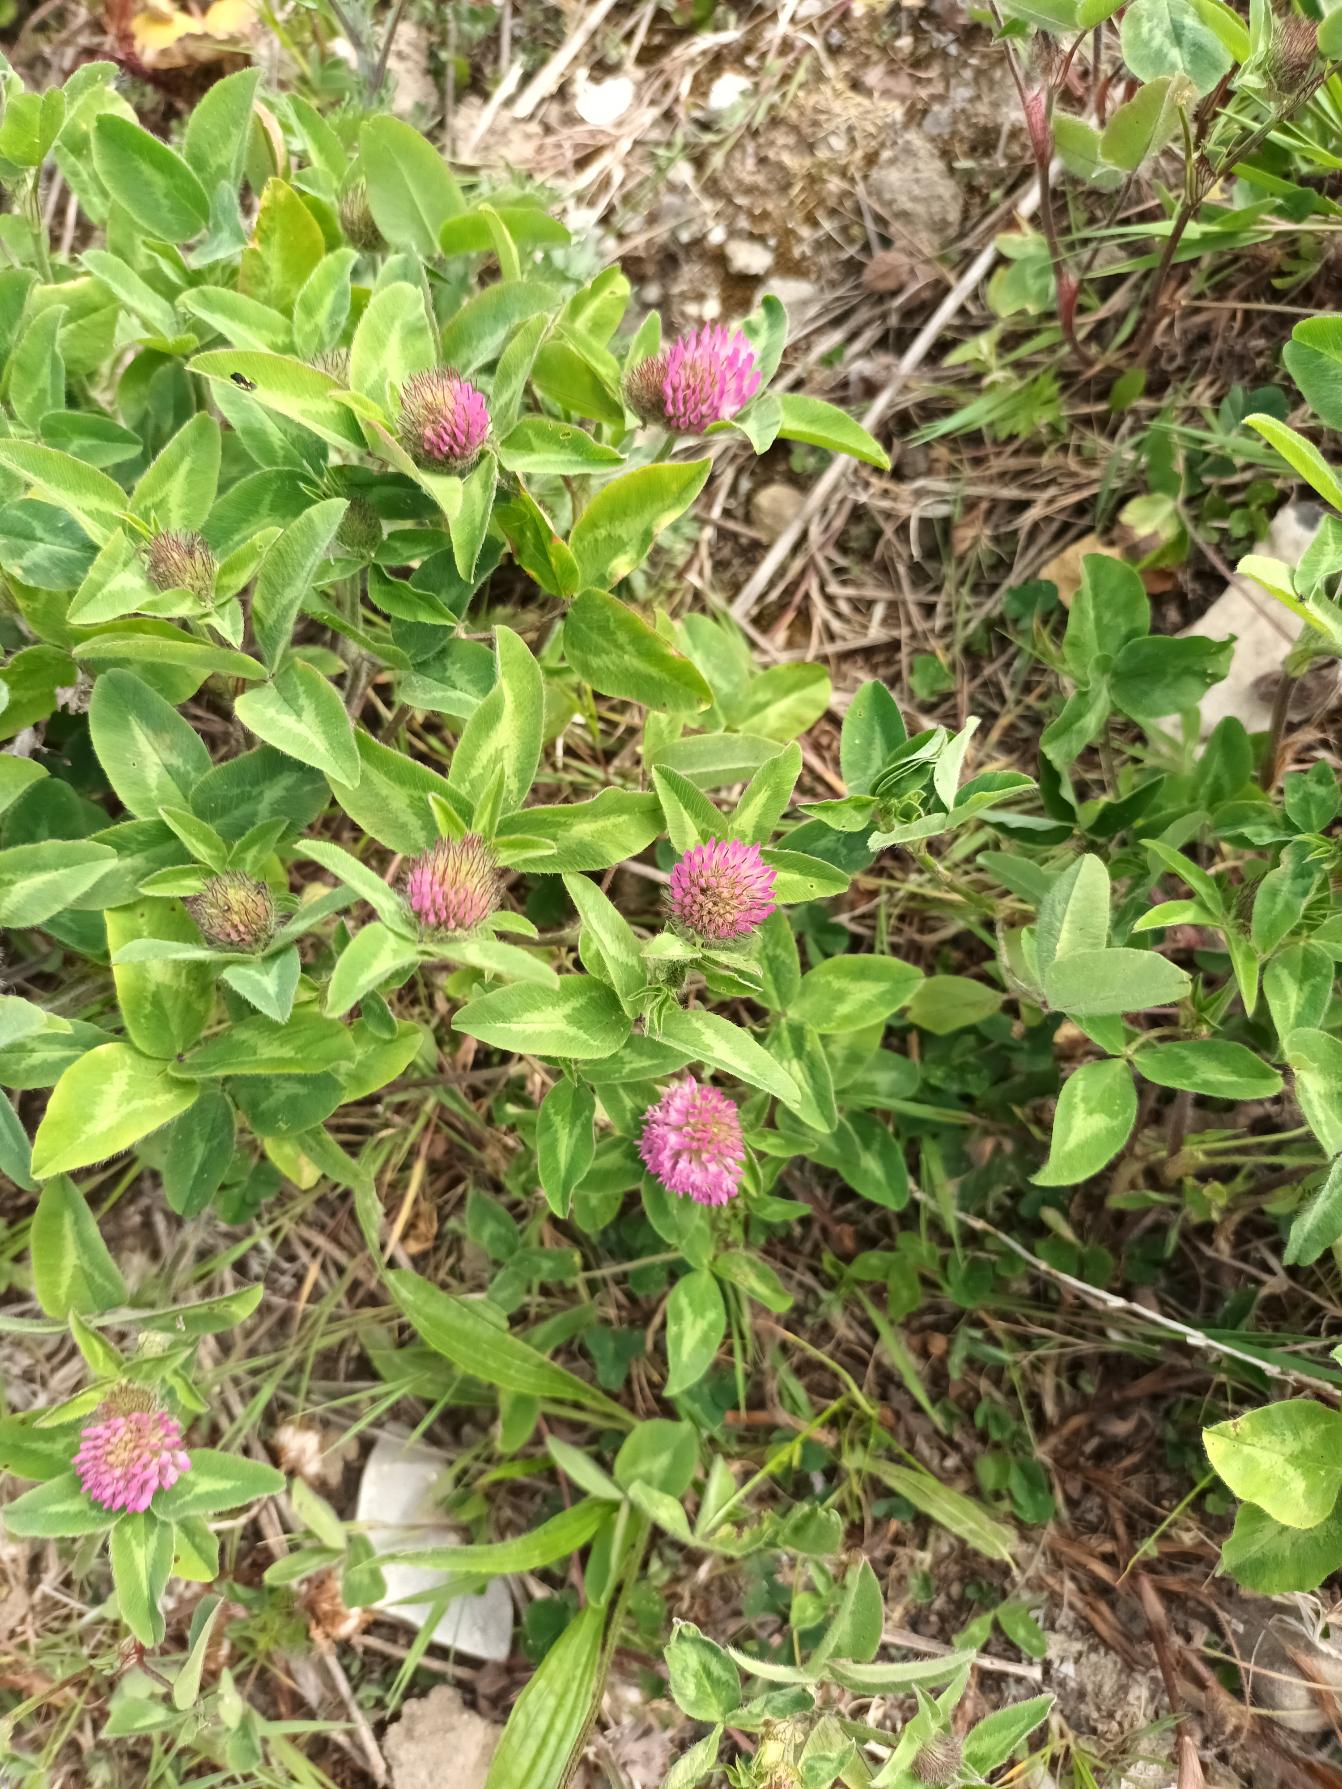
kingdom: Plantae
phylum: Tracheophyta
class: Magnoliopsida
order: Fabales
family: Fabaceae
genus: Trifolium
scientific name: Trifolium pratense
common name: Rød-kløver
